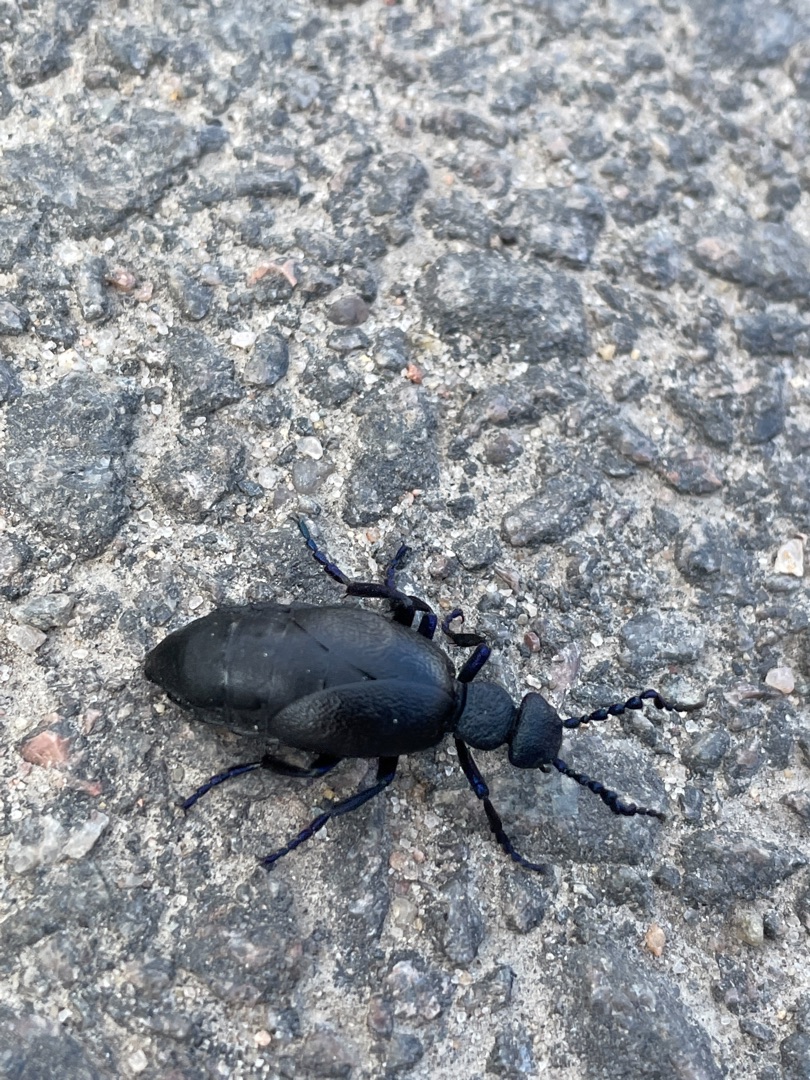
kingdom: Animalia
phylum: Arthropoda
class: Insecta
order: Coleoptera
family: Meloidae
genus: Meloe
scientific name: Meloe proscarabaeus
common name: Sort oliebille
